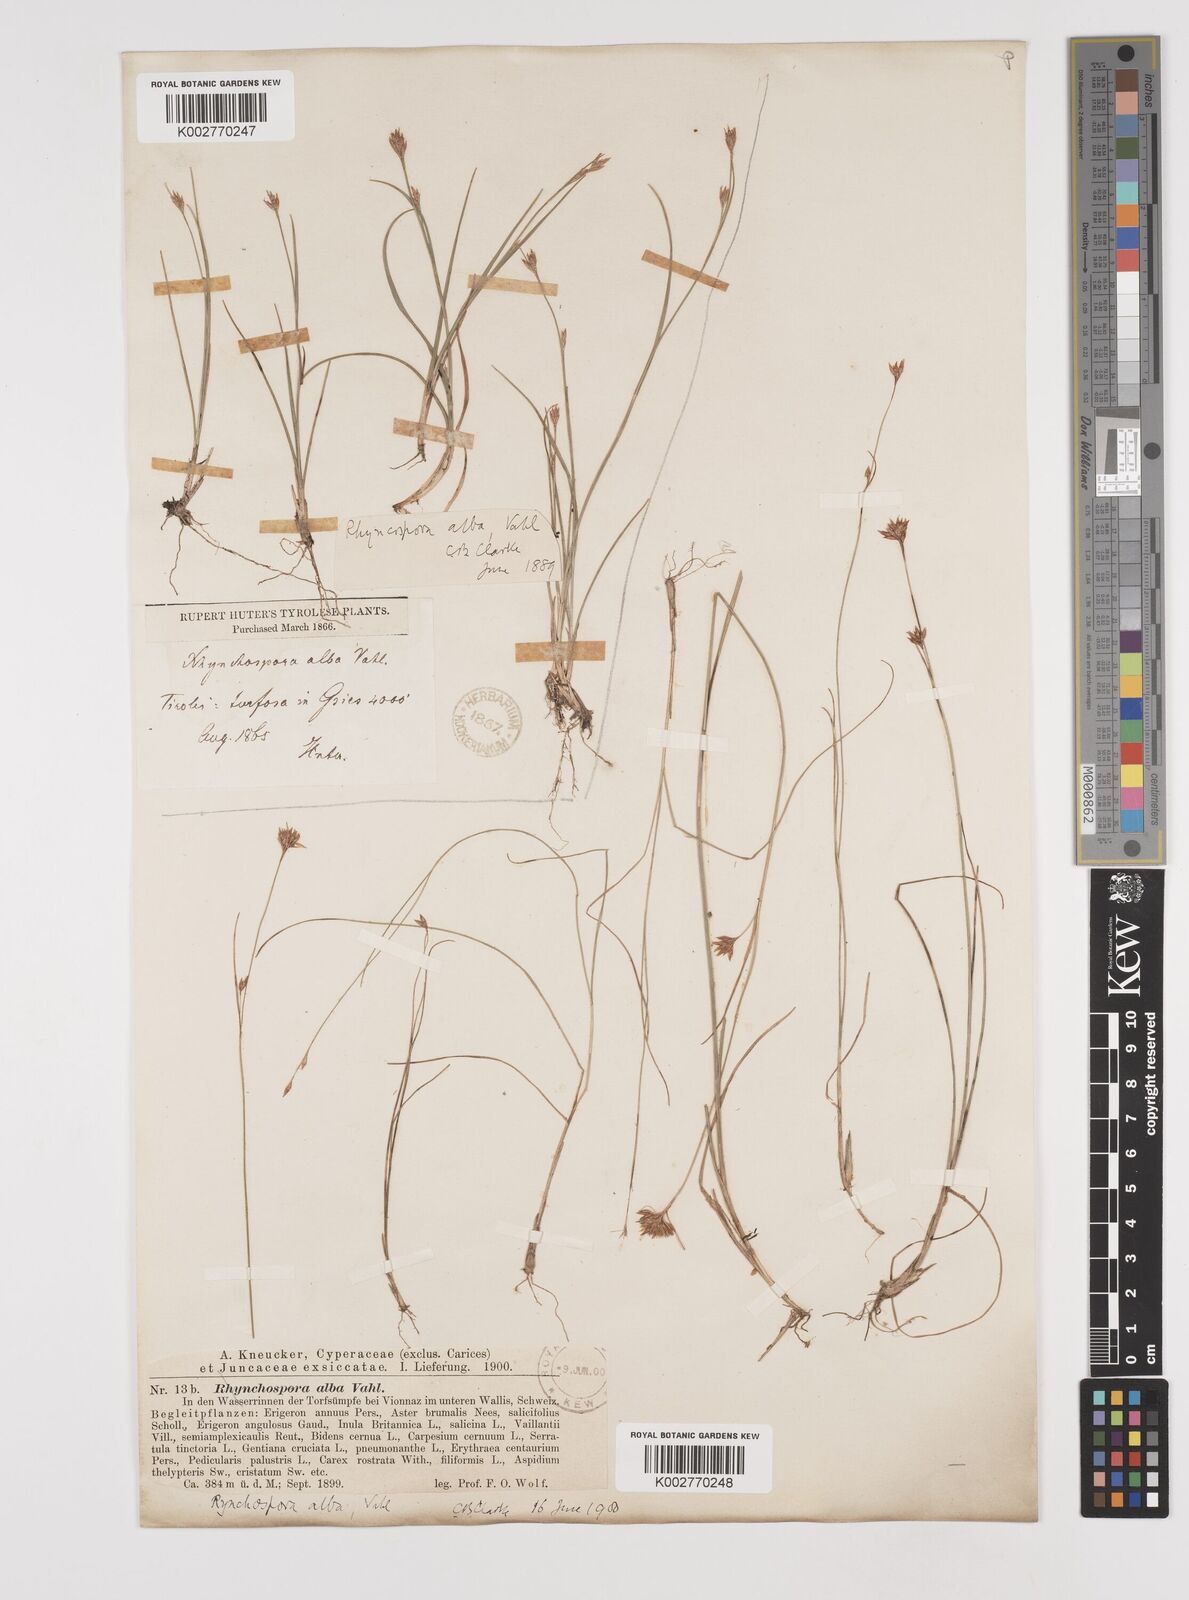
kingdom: Plantae
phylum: Tracheophyta
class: Liliopsida
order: Poales
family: Cyperaceae
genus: Rhynchospora
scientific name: Rhynchospora alba
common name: White beak-sedge
